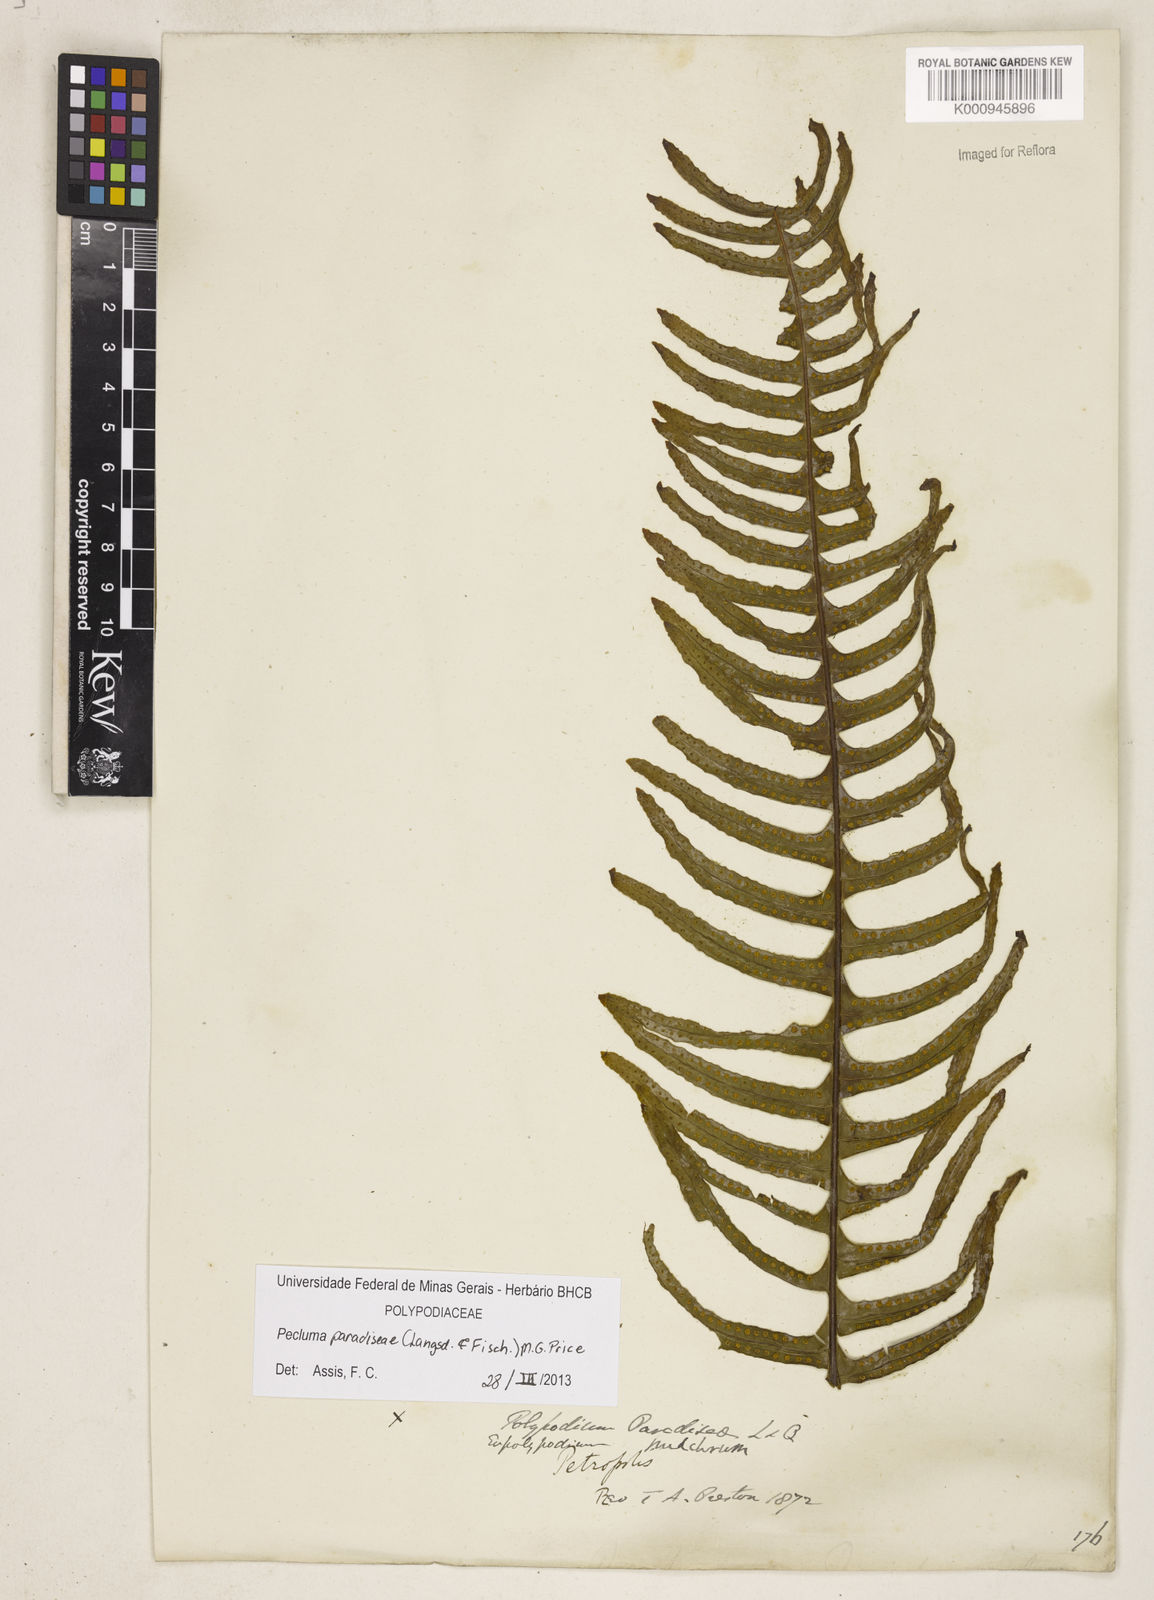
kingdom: Plantae
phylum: Tracheophyta
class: Polypodiopsida
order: Polypodiales
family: Polypodiaceae
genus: Pecluma
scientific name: Pecluma paradiseae
